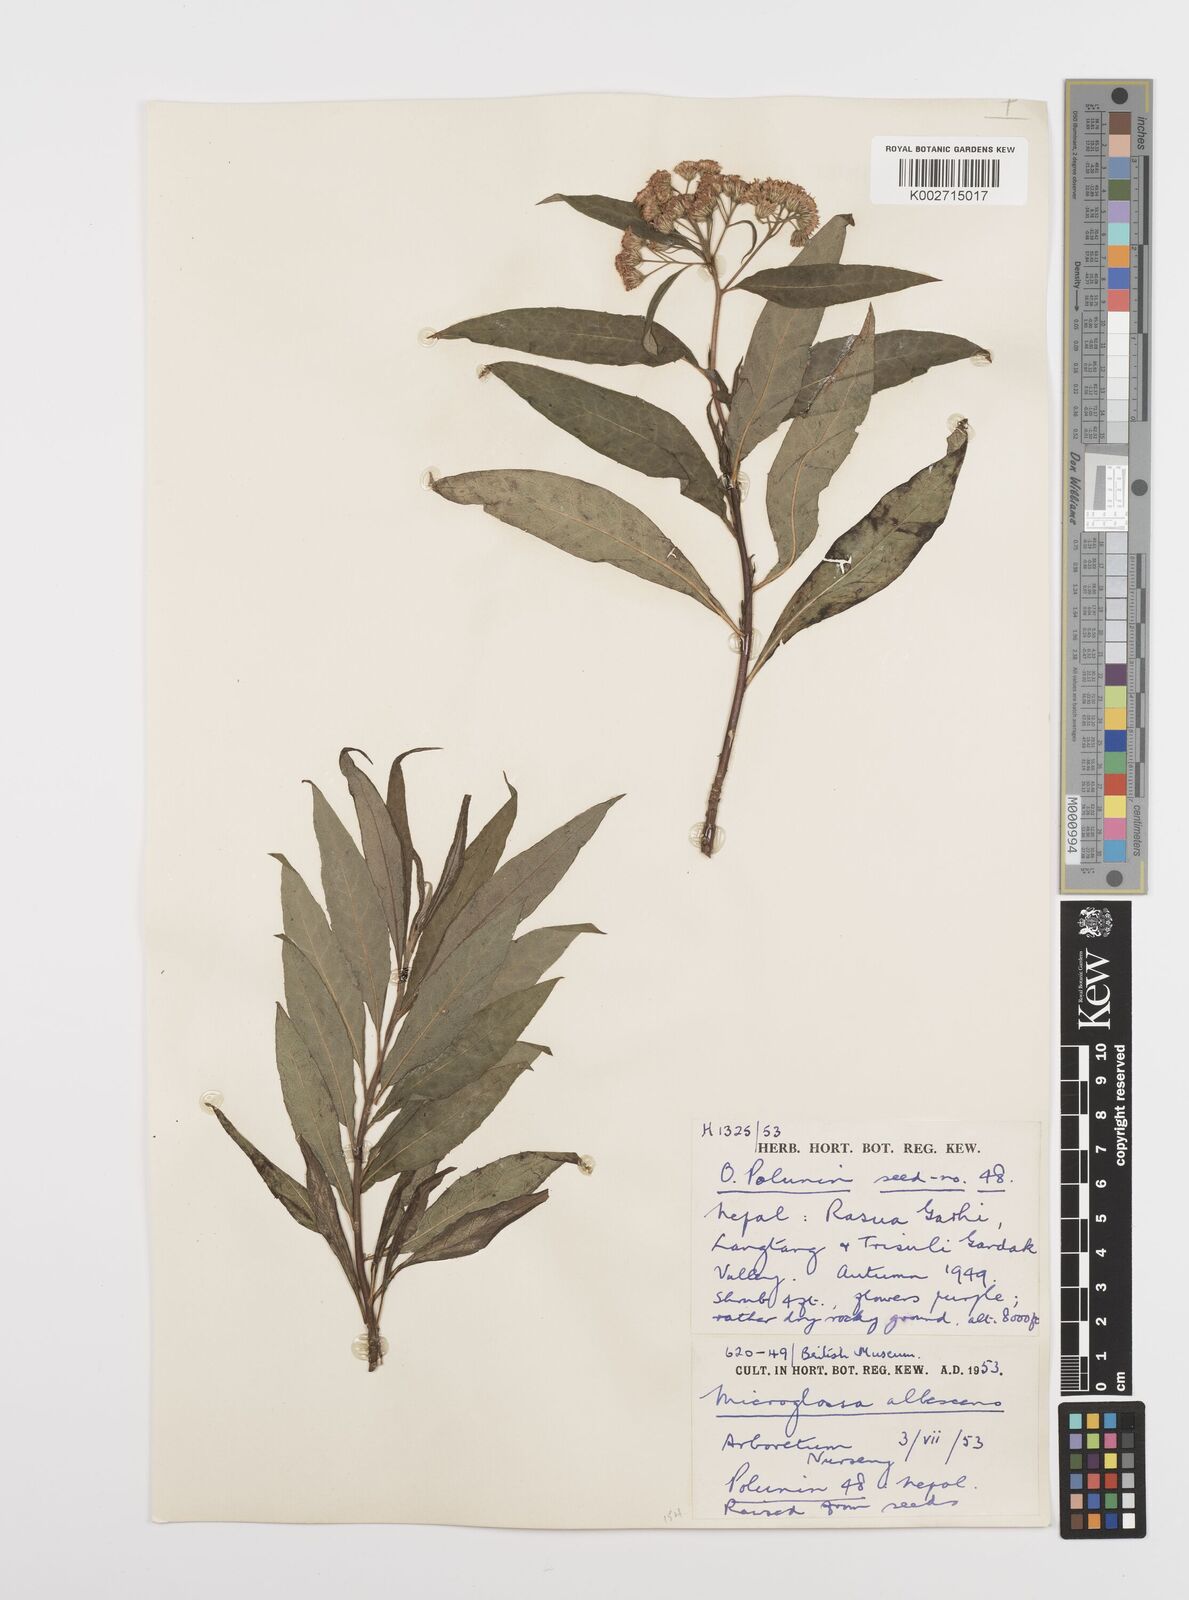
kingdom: Plantae
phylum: Tracheophyta
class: Magnoliopsida
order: Asterales
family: Asteraceae
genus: Sinosidus
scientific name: Sinosidus albescens
